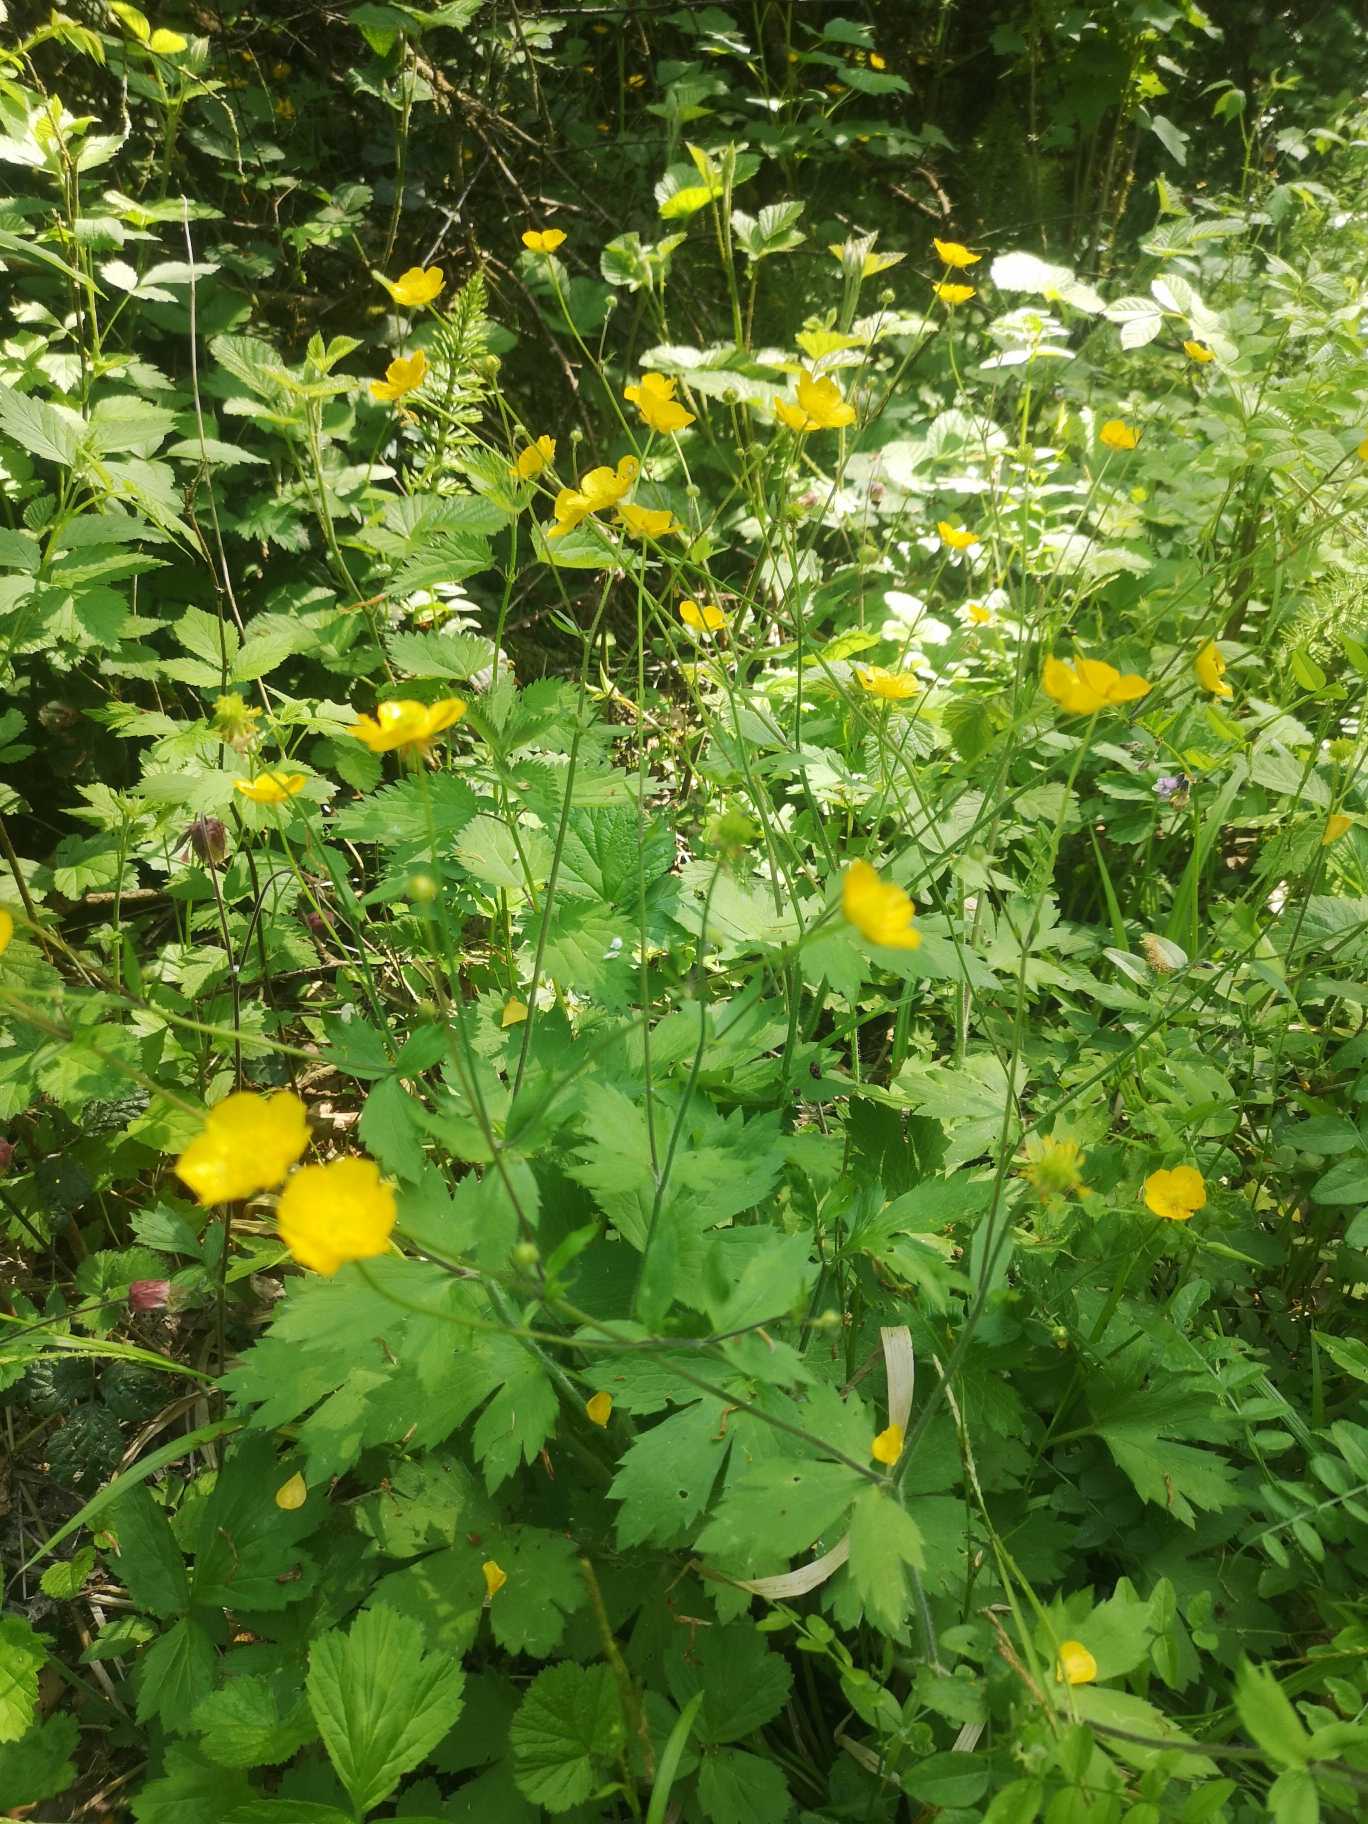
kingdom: Plantae
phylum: Tracheophyta
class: Magnoliopsida
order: Ranunculales
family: Ranunculaceae
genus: Ranunculus
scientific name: Ranunculus lanuginosus
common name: Uldhåret ranunkel
